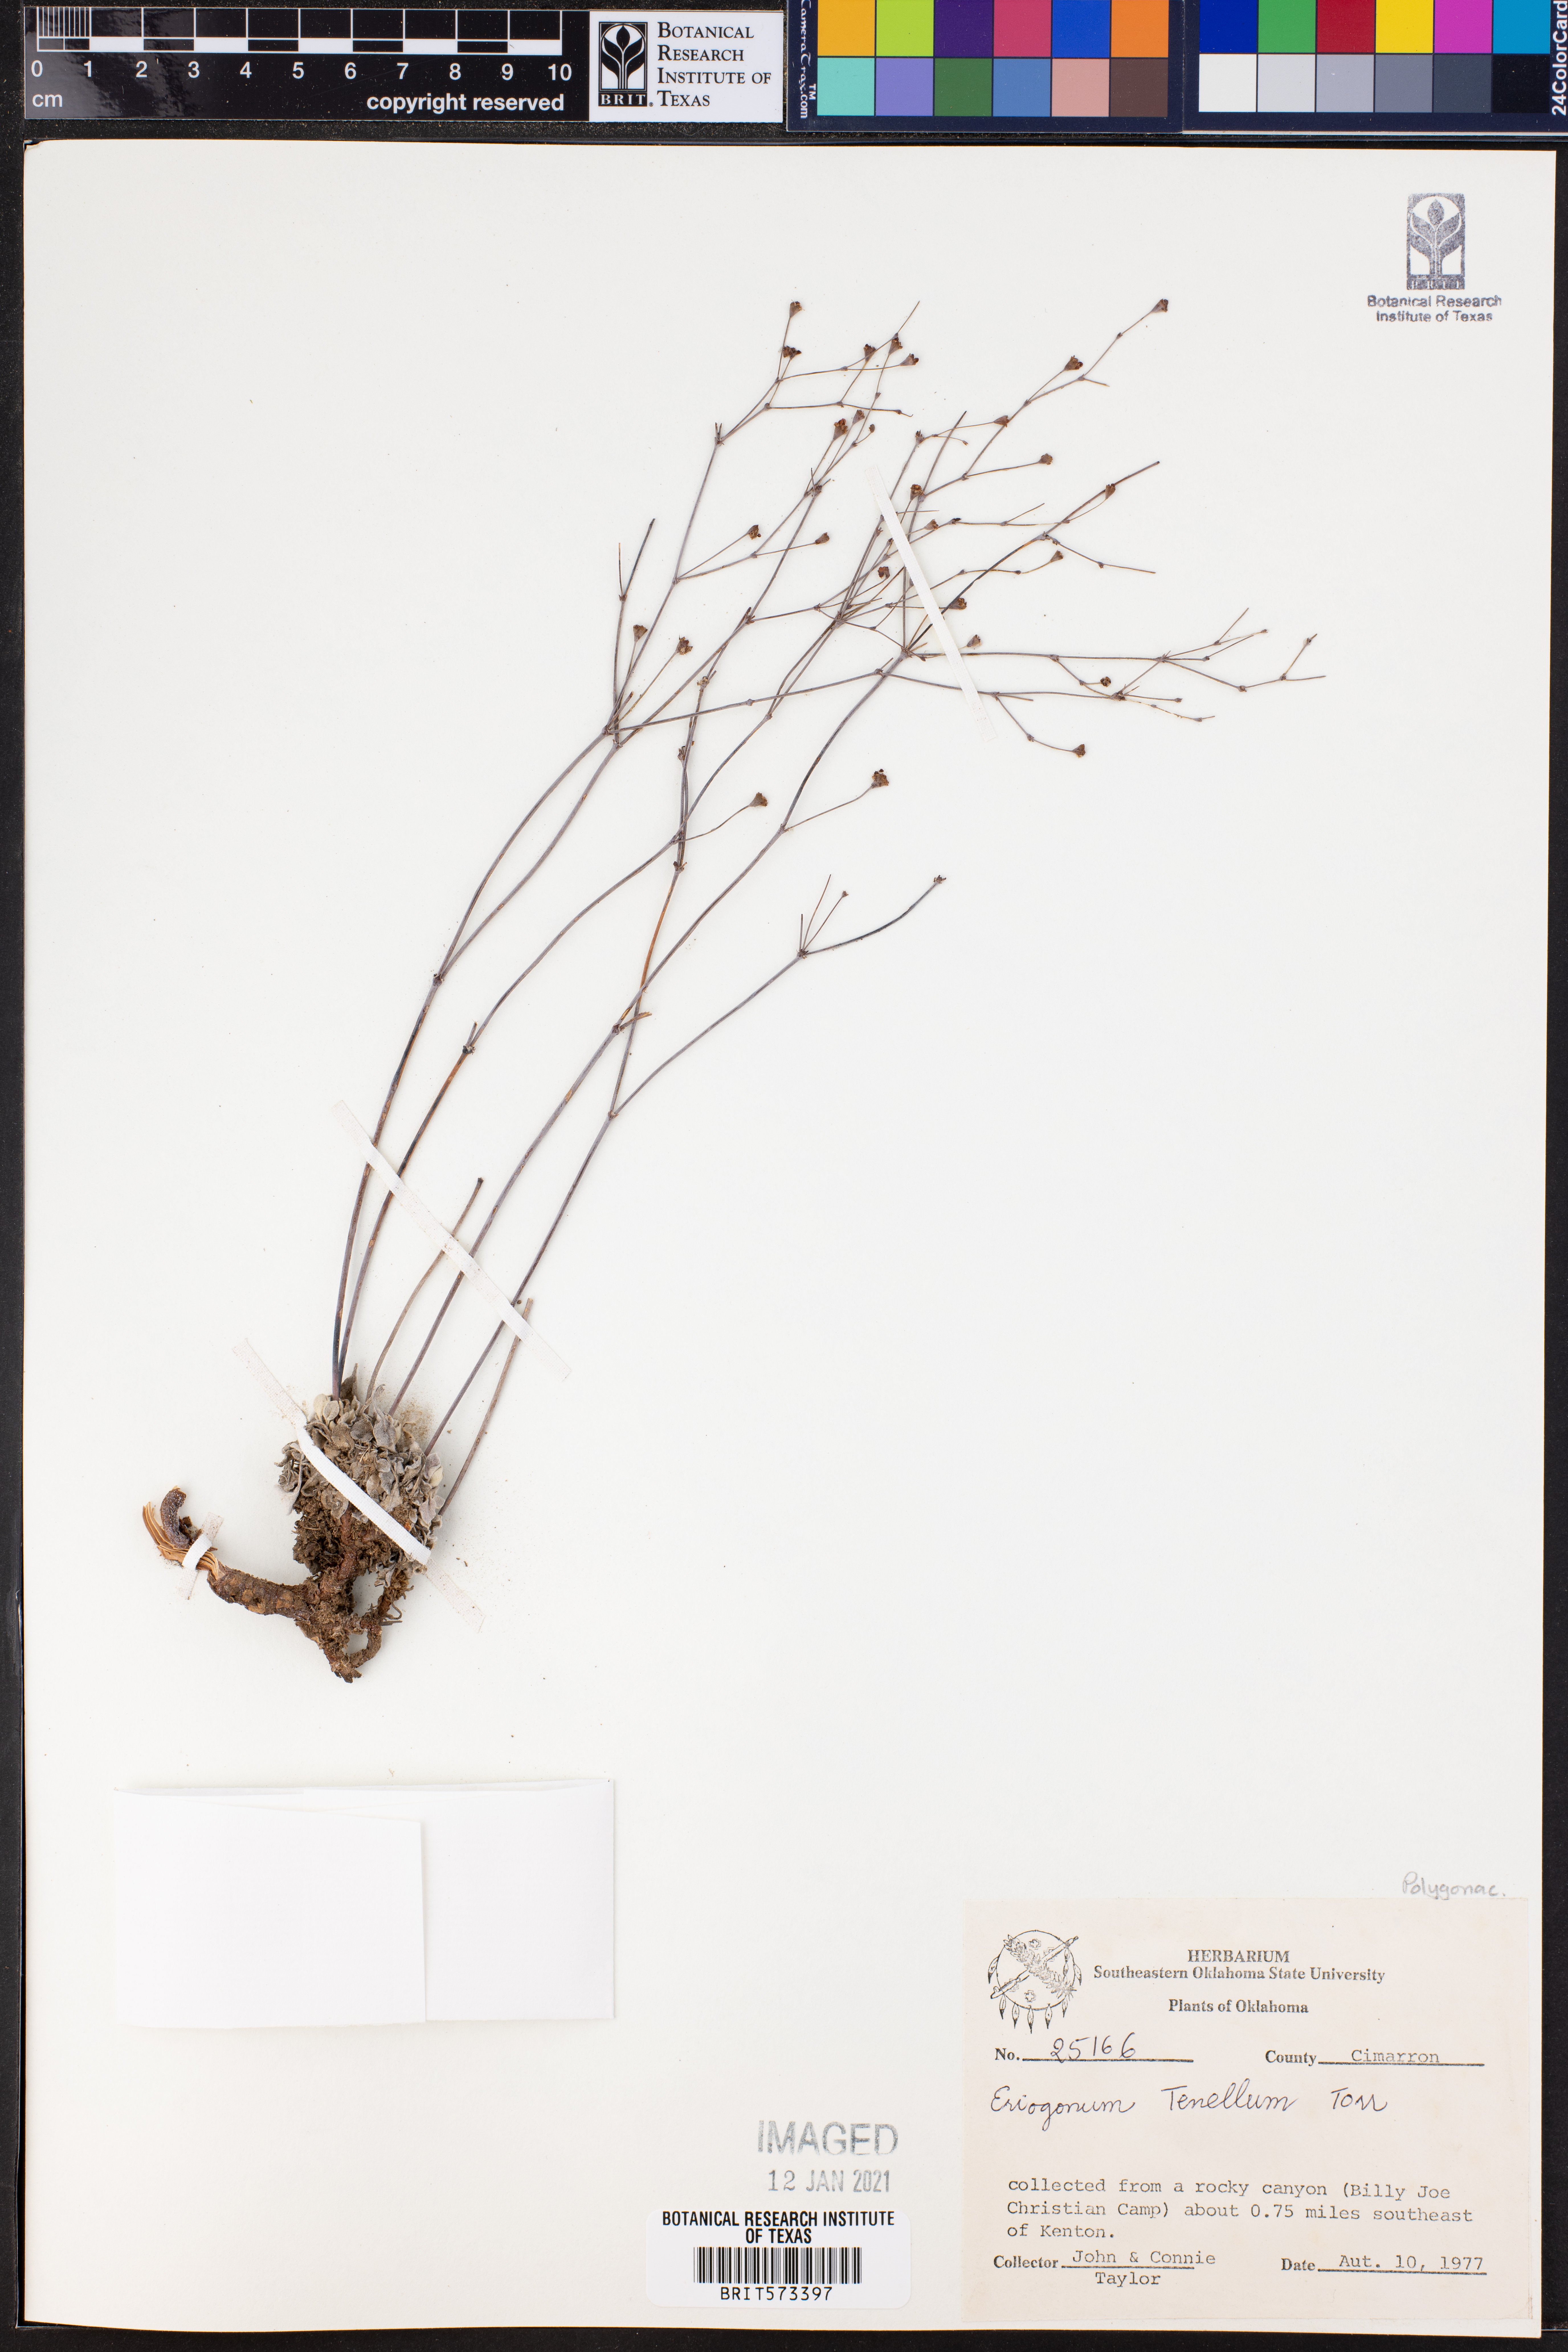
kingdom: Plantae
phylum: Tracheophyta
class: Magnoliopsida
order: Caryophyllales
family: Polygonaceae
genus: Eriogonum
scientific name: Eriogonum tenellum
